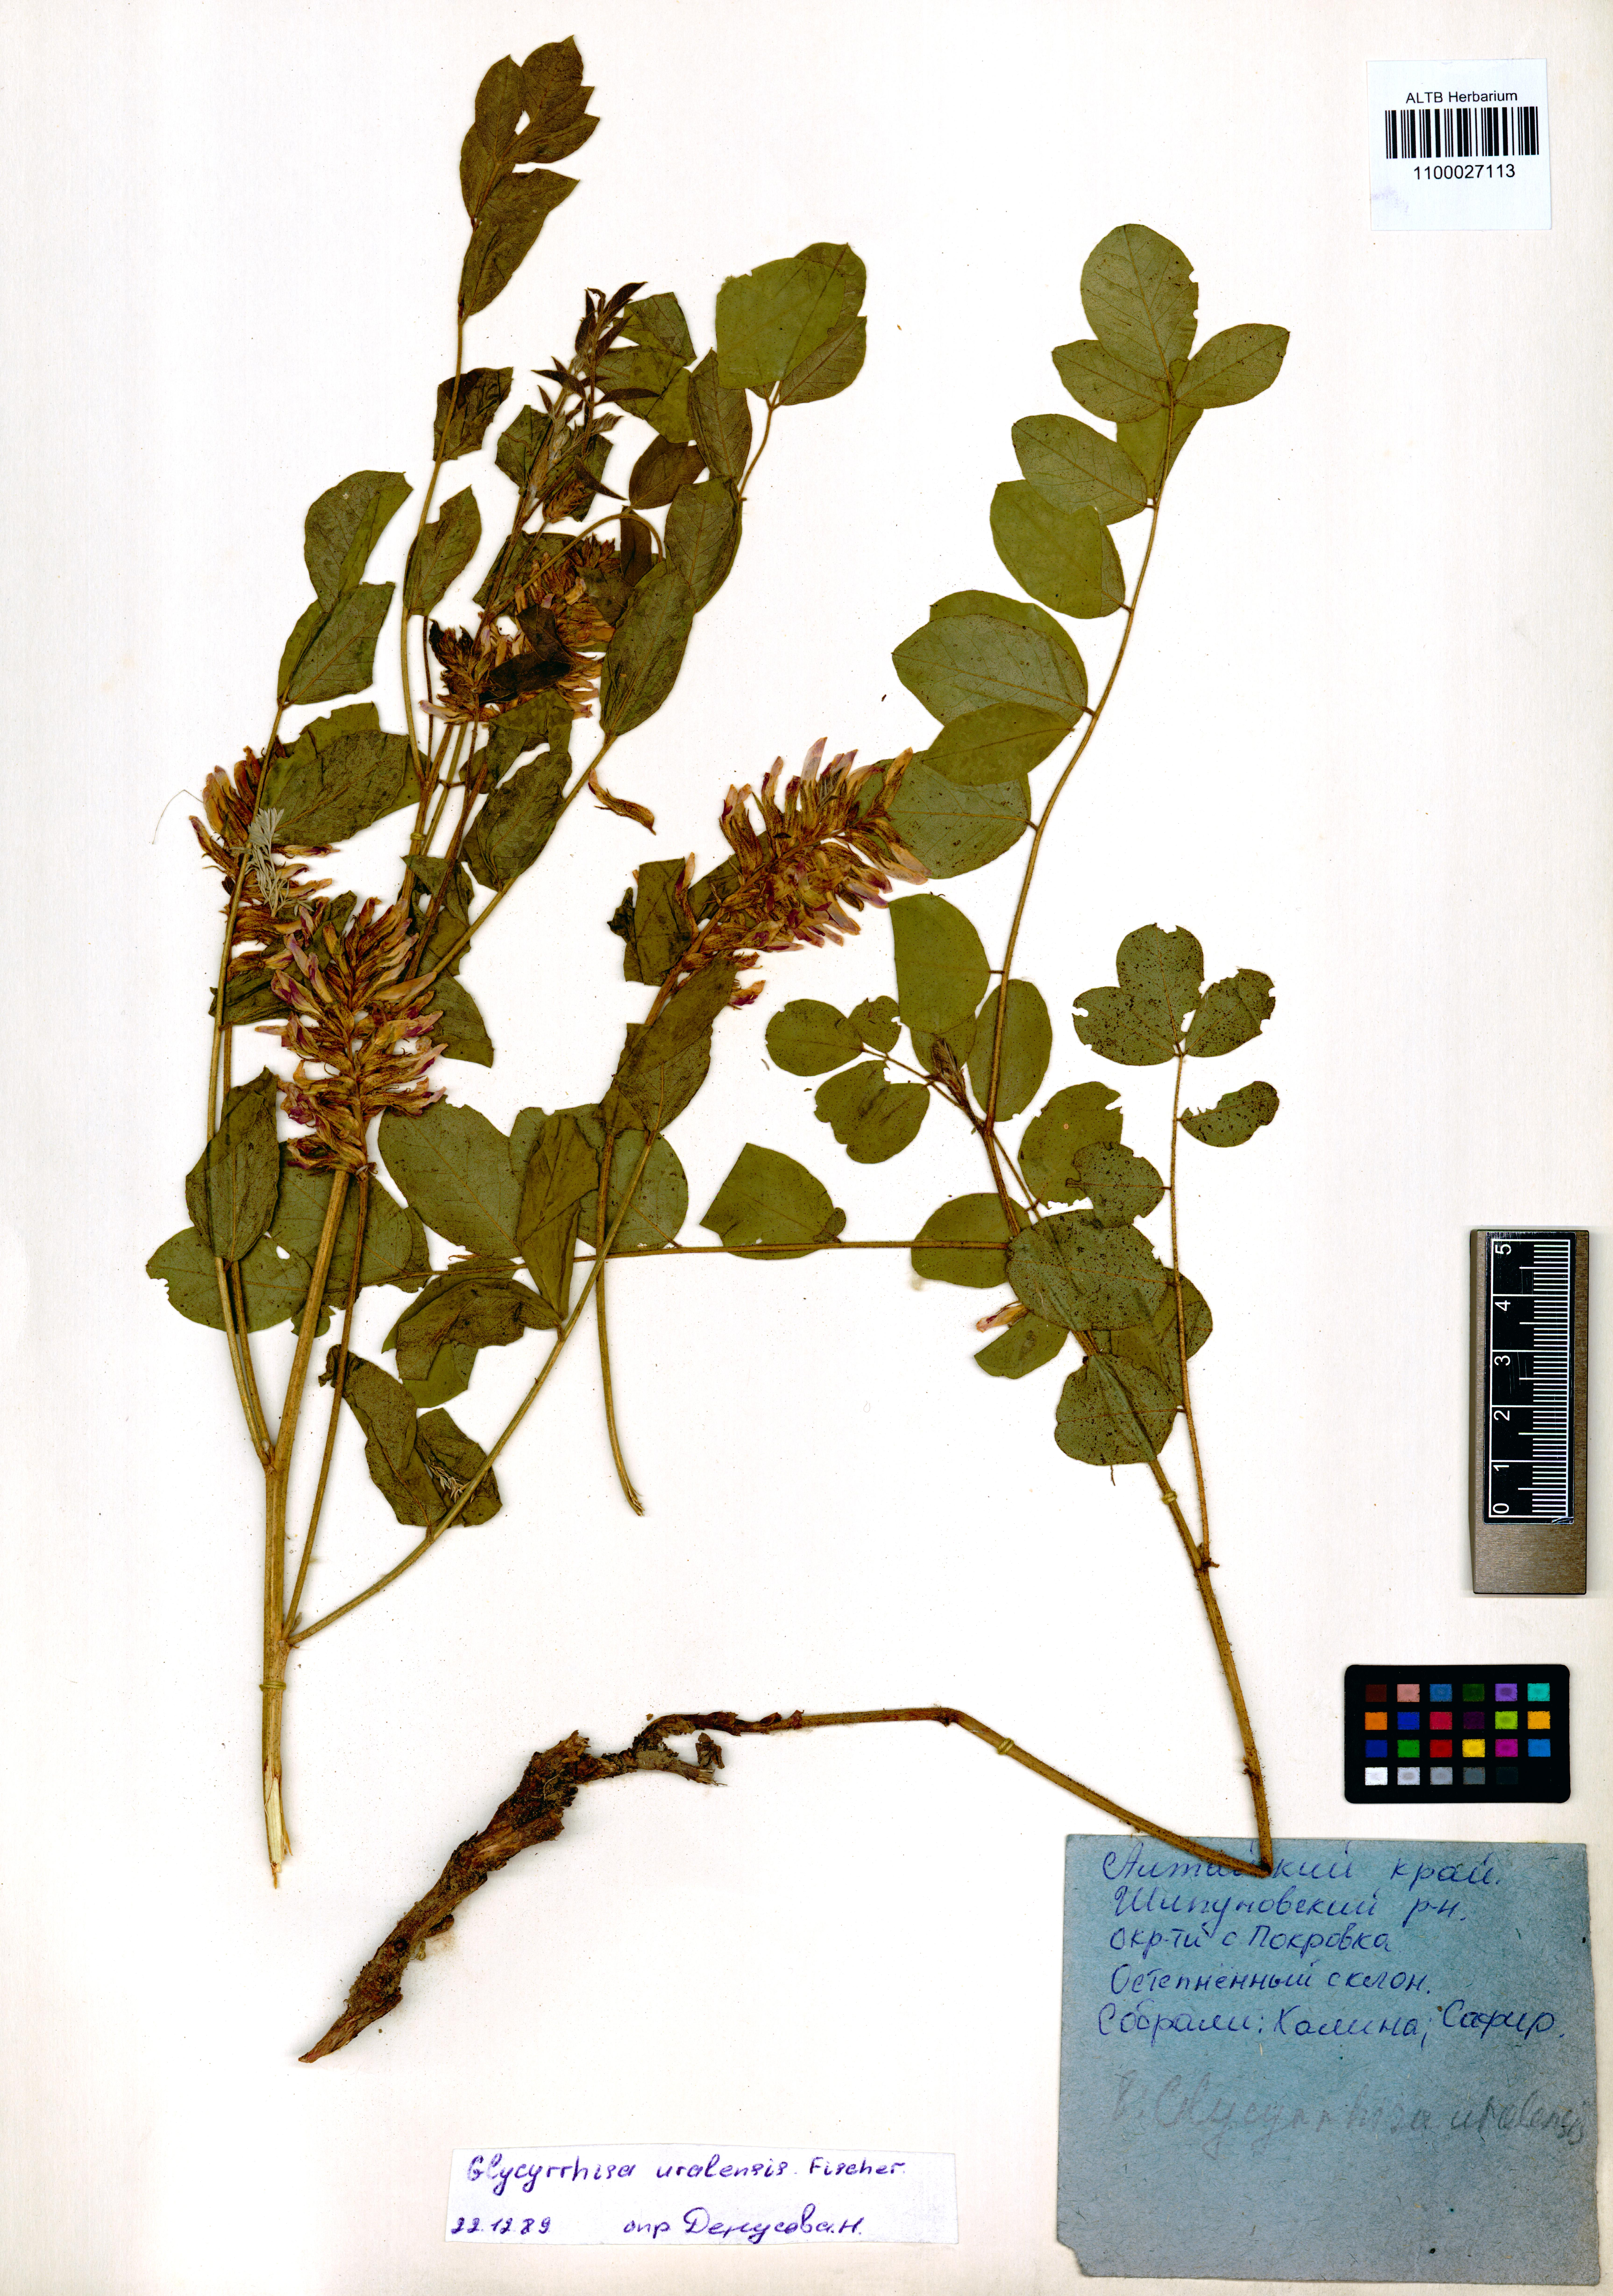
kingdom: Plantae
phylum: Tracheophyta
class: Magnoliopsida
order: Fabales
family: Fabaceae
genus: Glycyrrhiza
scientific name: Glycyrrhiza uralensis
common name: Chinese licorice
